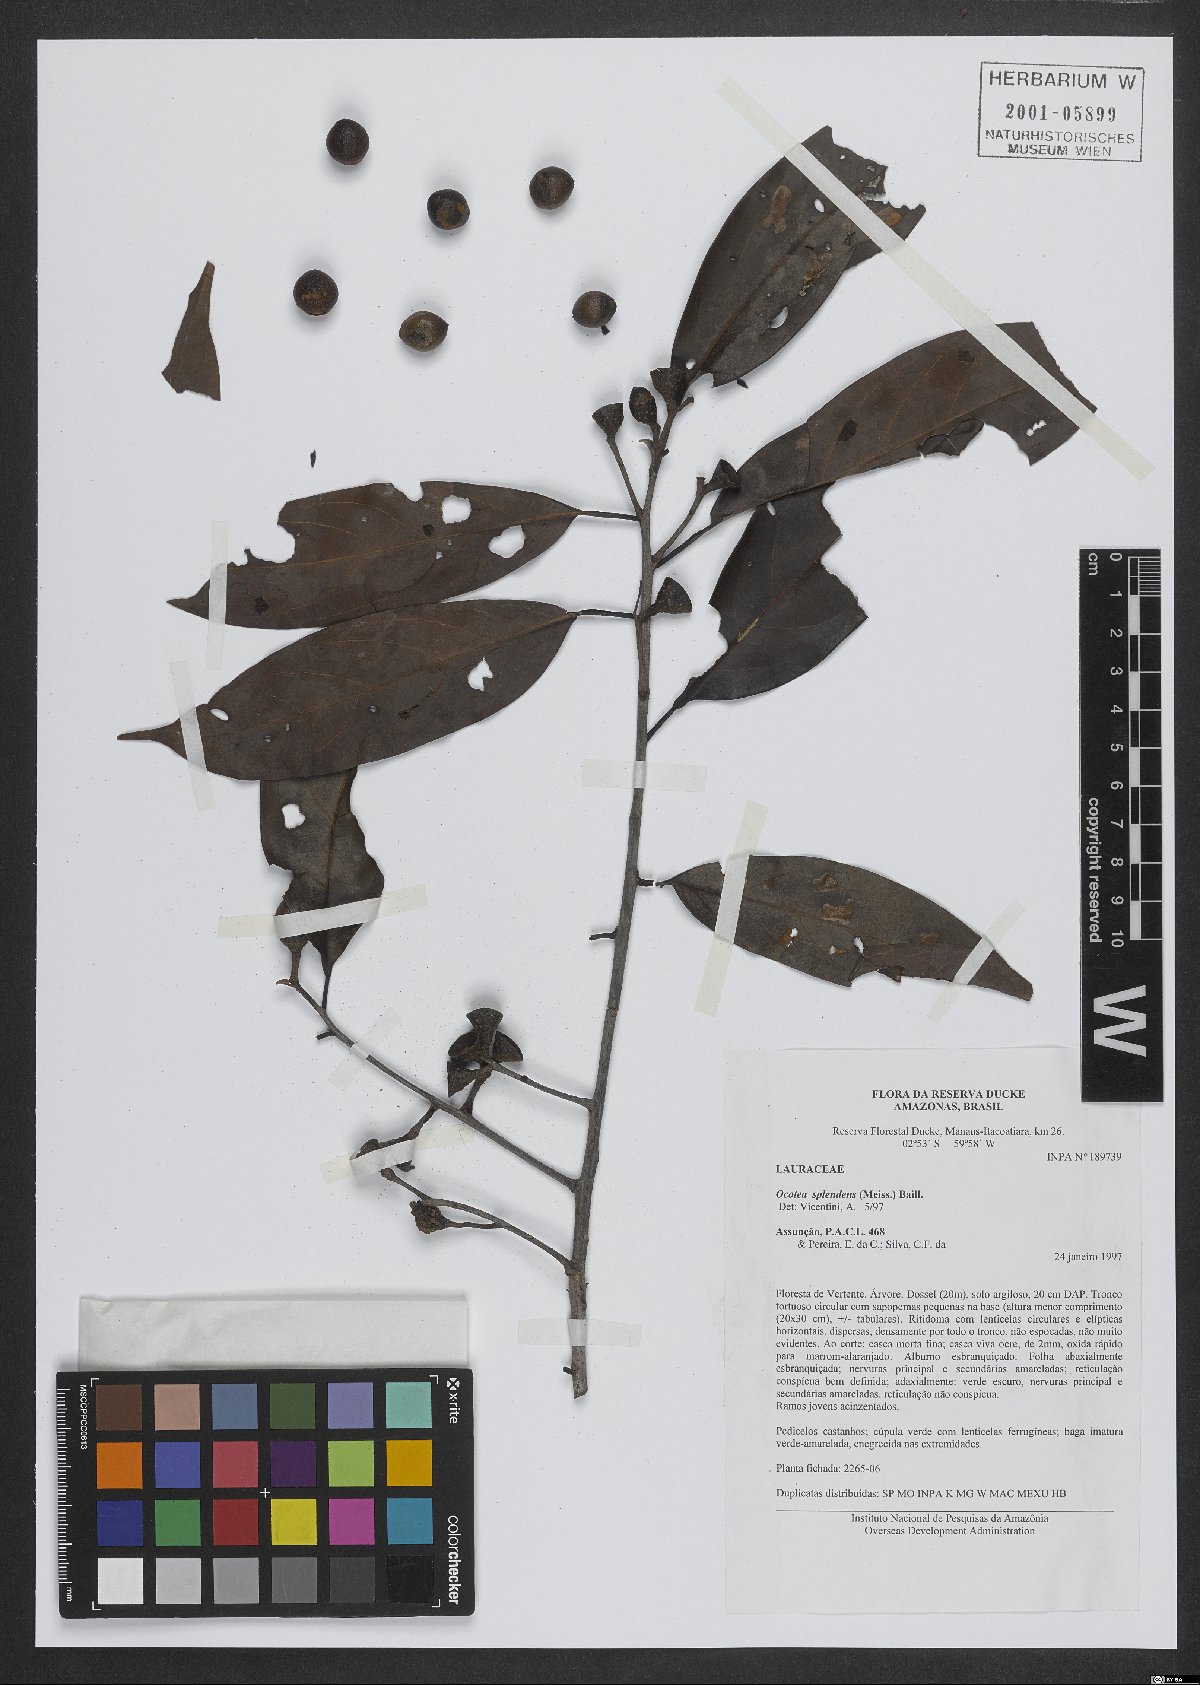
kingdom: Plantae
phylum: Tracheophyta
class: Magnoliopsida
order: Laurales
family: Lauraceae
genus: Ocotea
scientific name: Ocotea splendens
